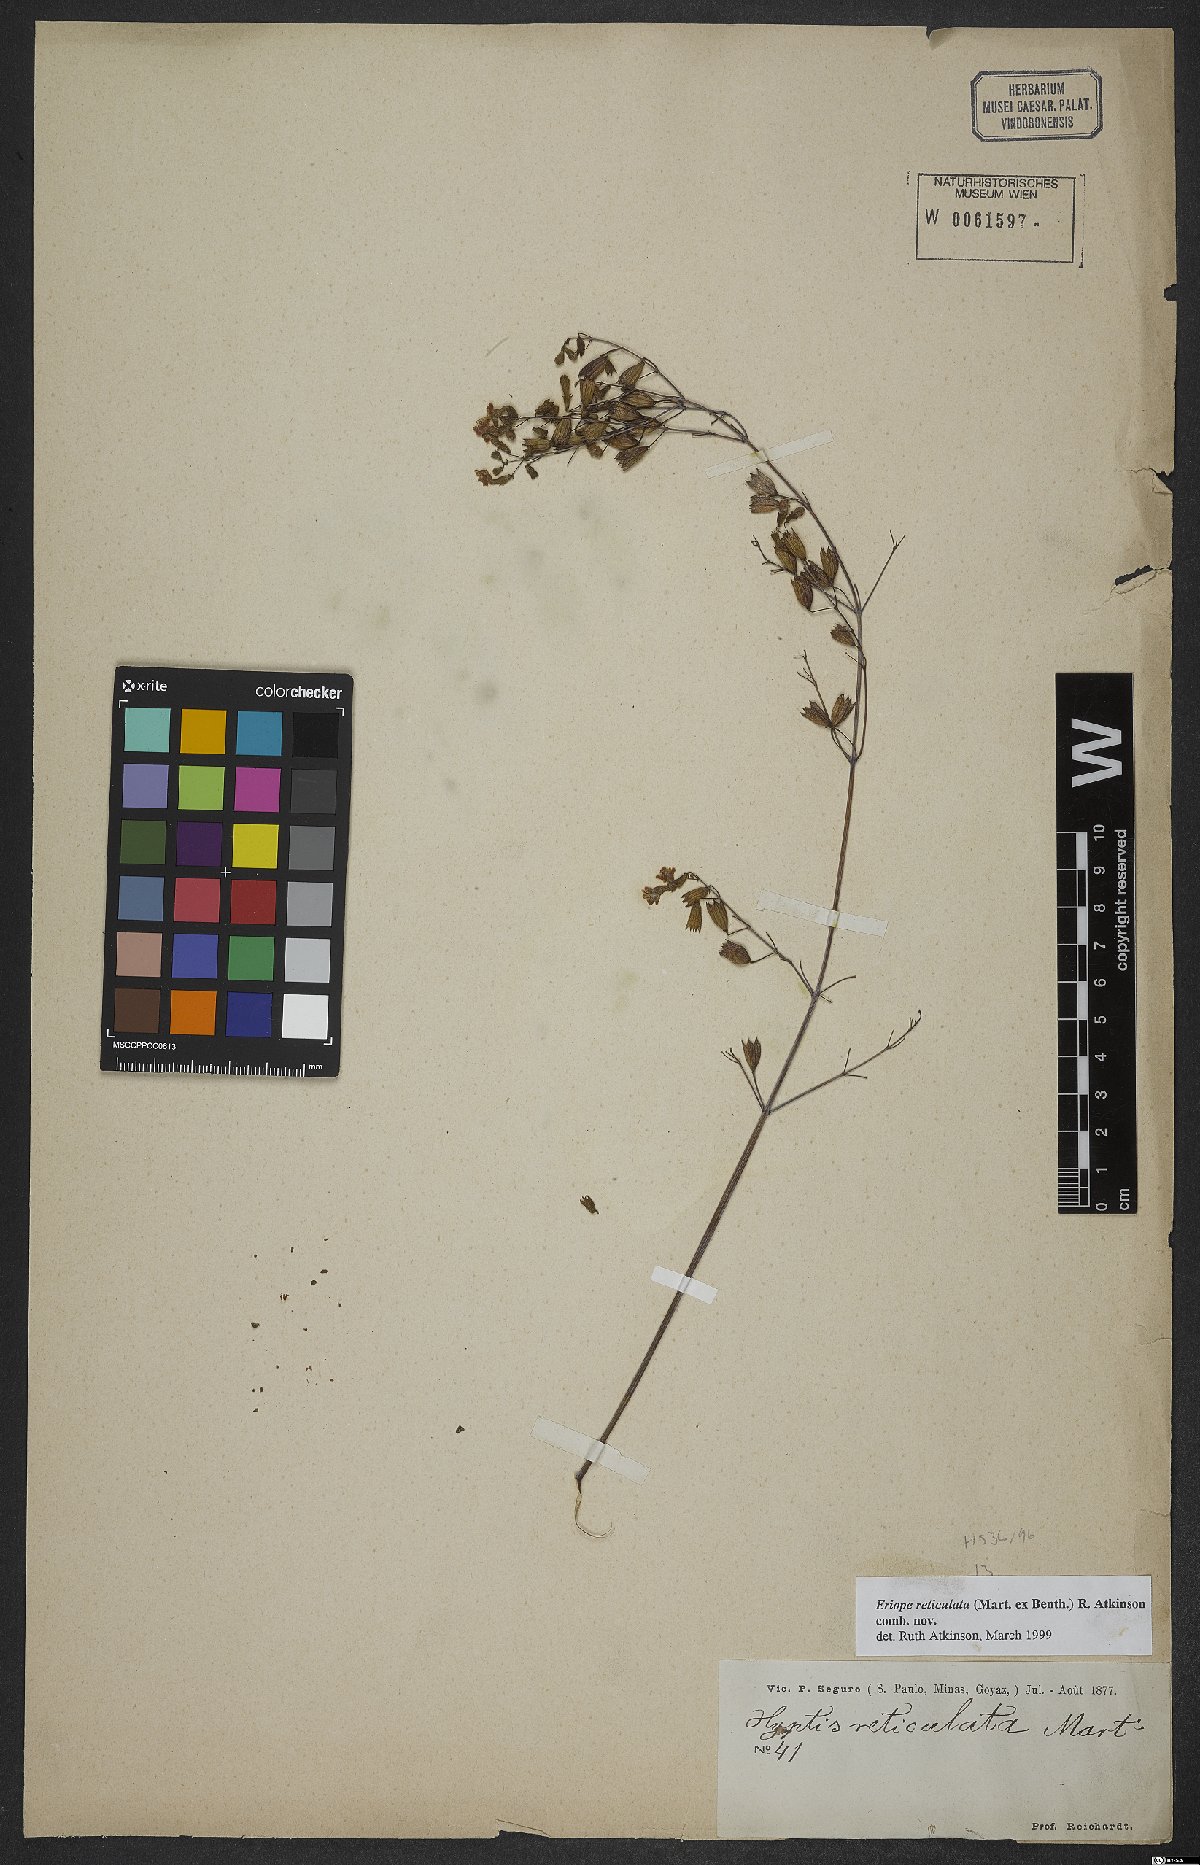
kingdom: Plantae
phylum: Tracheophyta
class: Magnoliopsida
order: Lamiales
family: Lamiaceae
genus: Eriope
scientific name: Eriope
